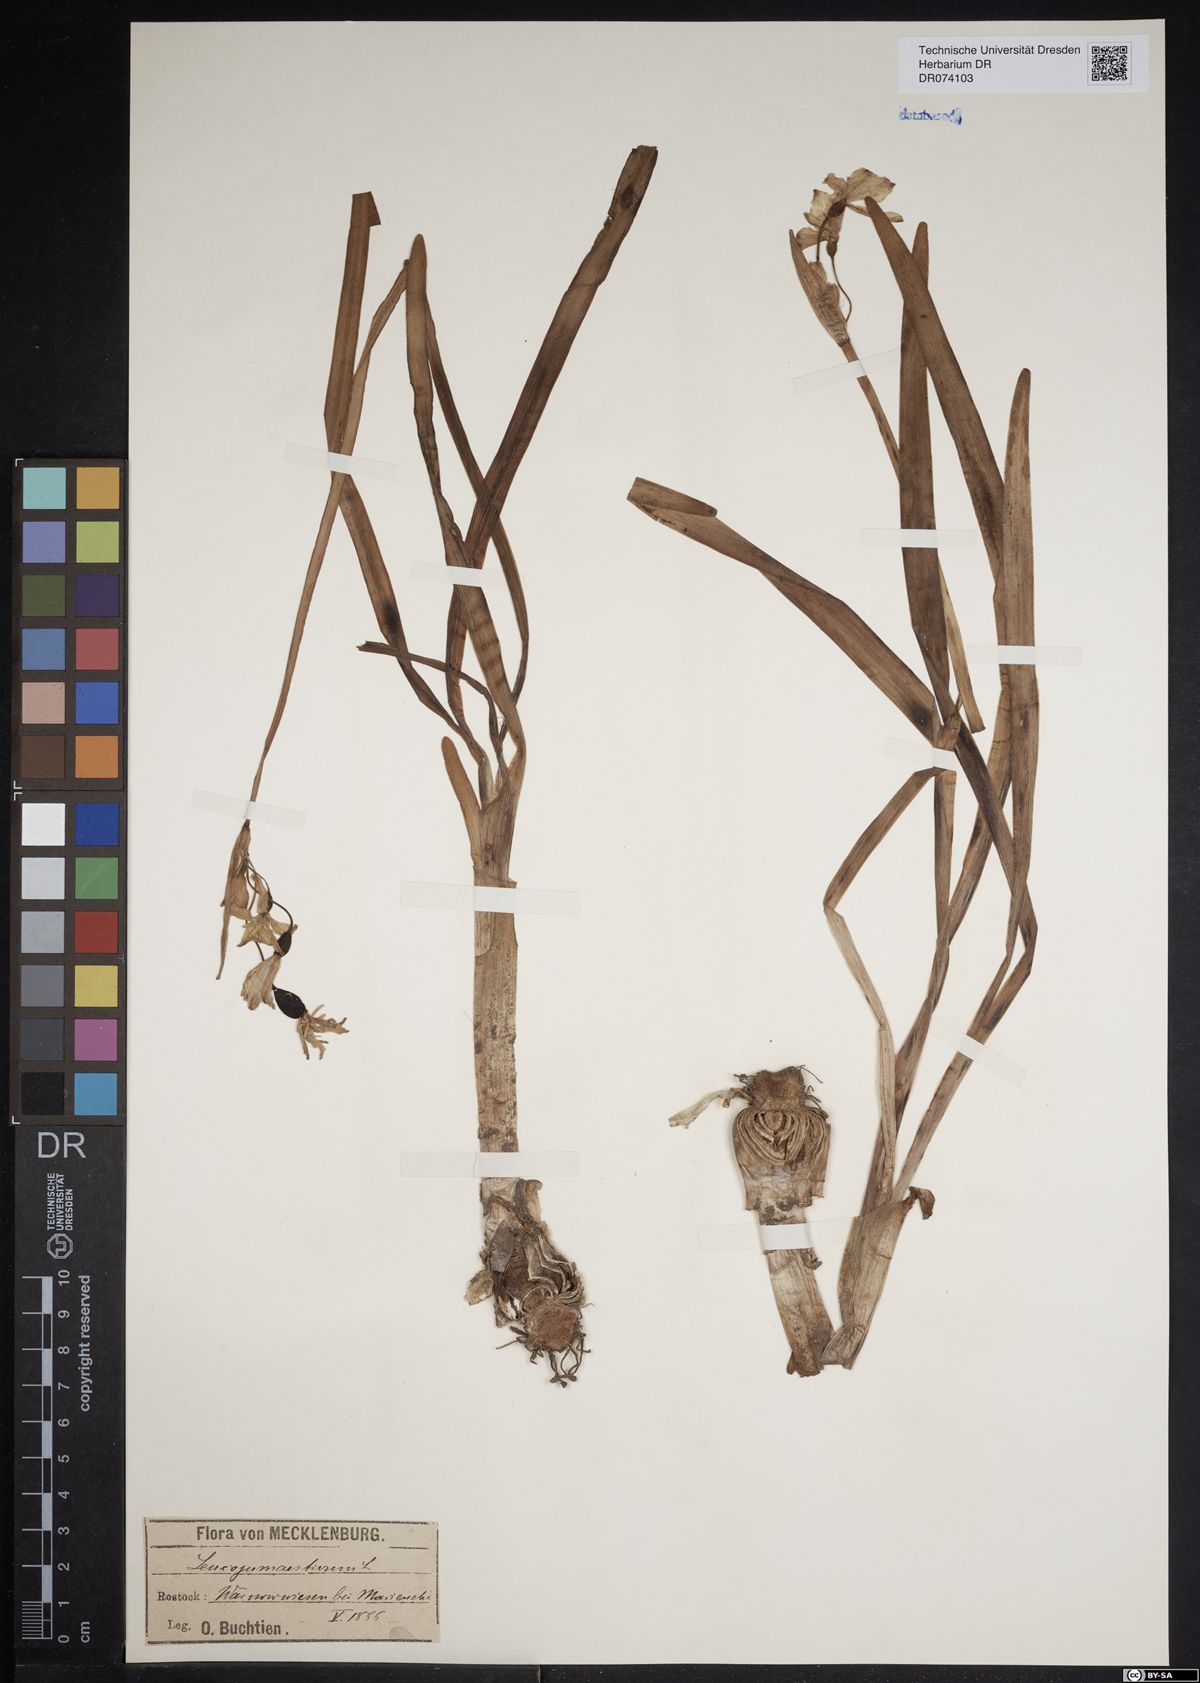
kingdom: Plantae
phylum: Tracheophyta
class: Liliopsida
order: Asparagales
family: Amaryllidaceae
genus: Leucojum
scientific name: Leucojum aestivum
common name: Summer snowflake
